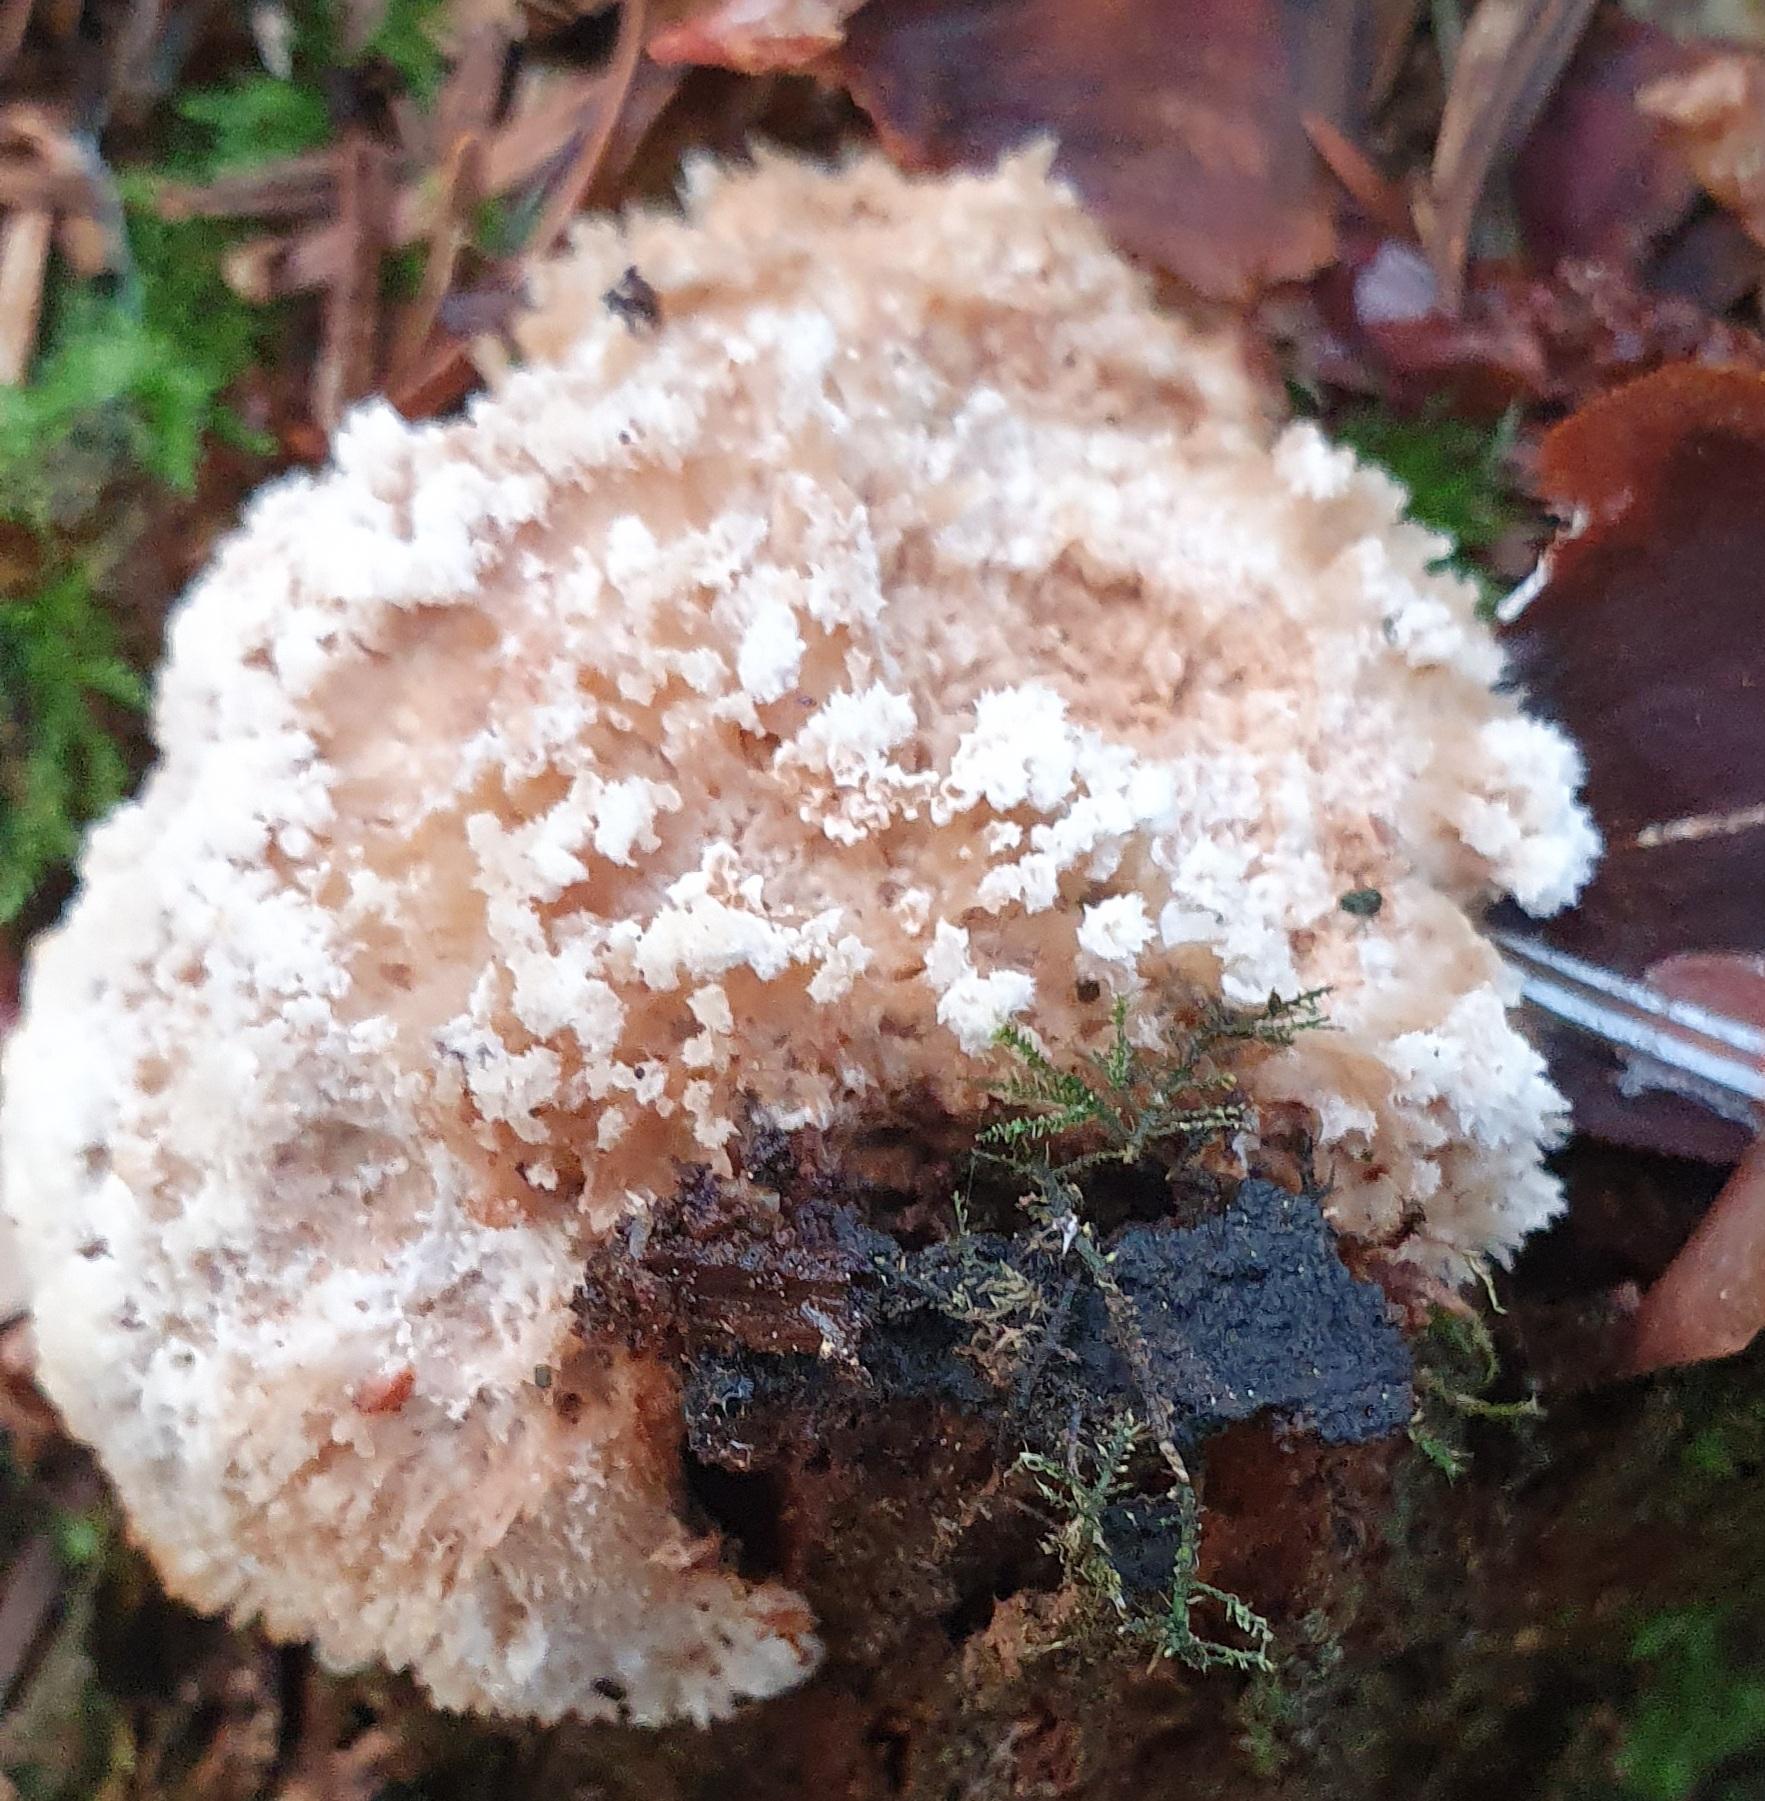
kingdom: Fungi
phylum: Basidiomycota
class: Agaricomycetes
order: Polyporales
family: Dacryobolaceae
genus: Postia
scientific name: Postia ptychogaster
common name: støvende kødporesvamp
